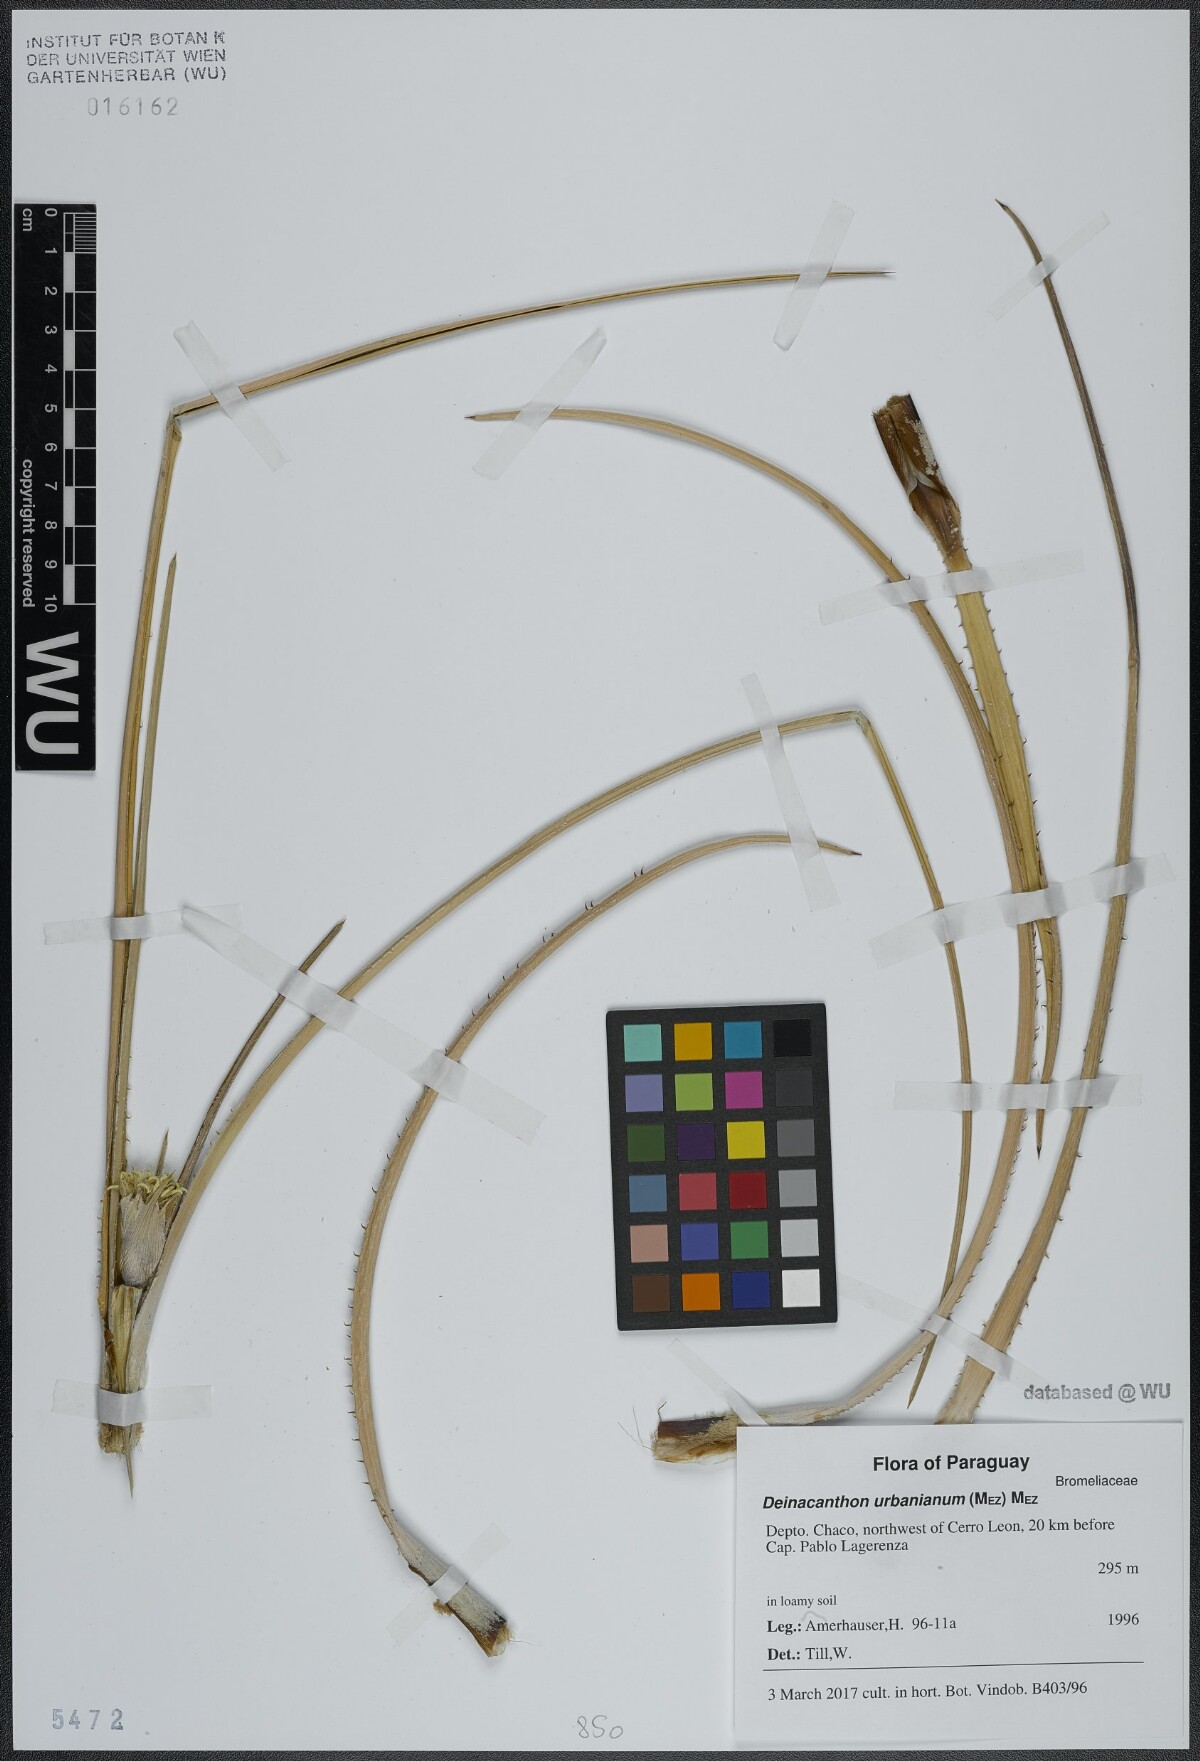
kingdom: Plantae
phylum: Tracheophyta
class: Liliopsida
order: Poales
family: Bromeliaceae
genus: Deinacanthon
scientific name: Deinacanthon urbanianum
